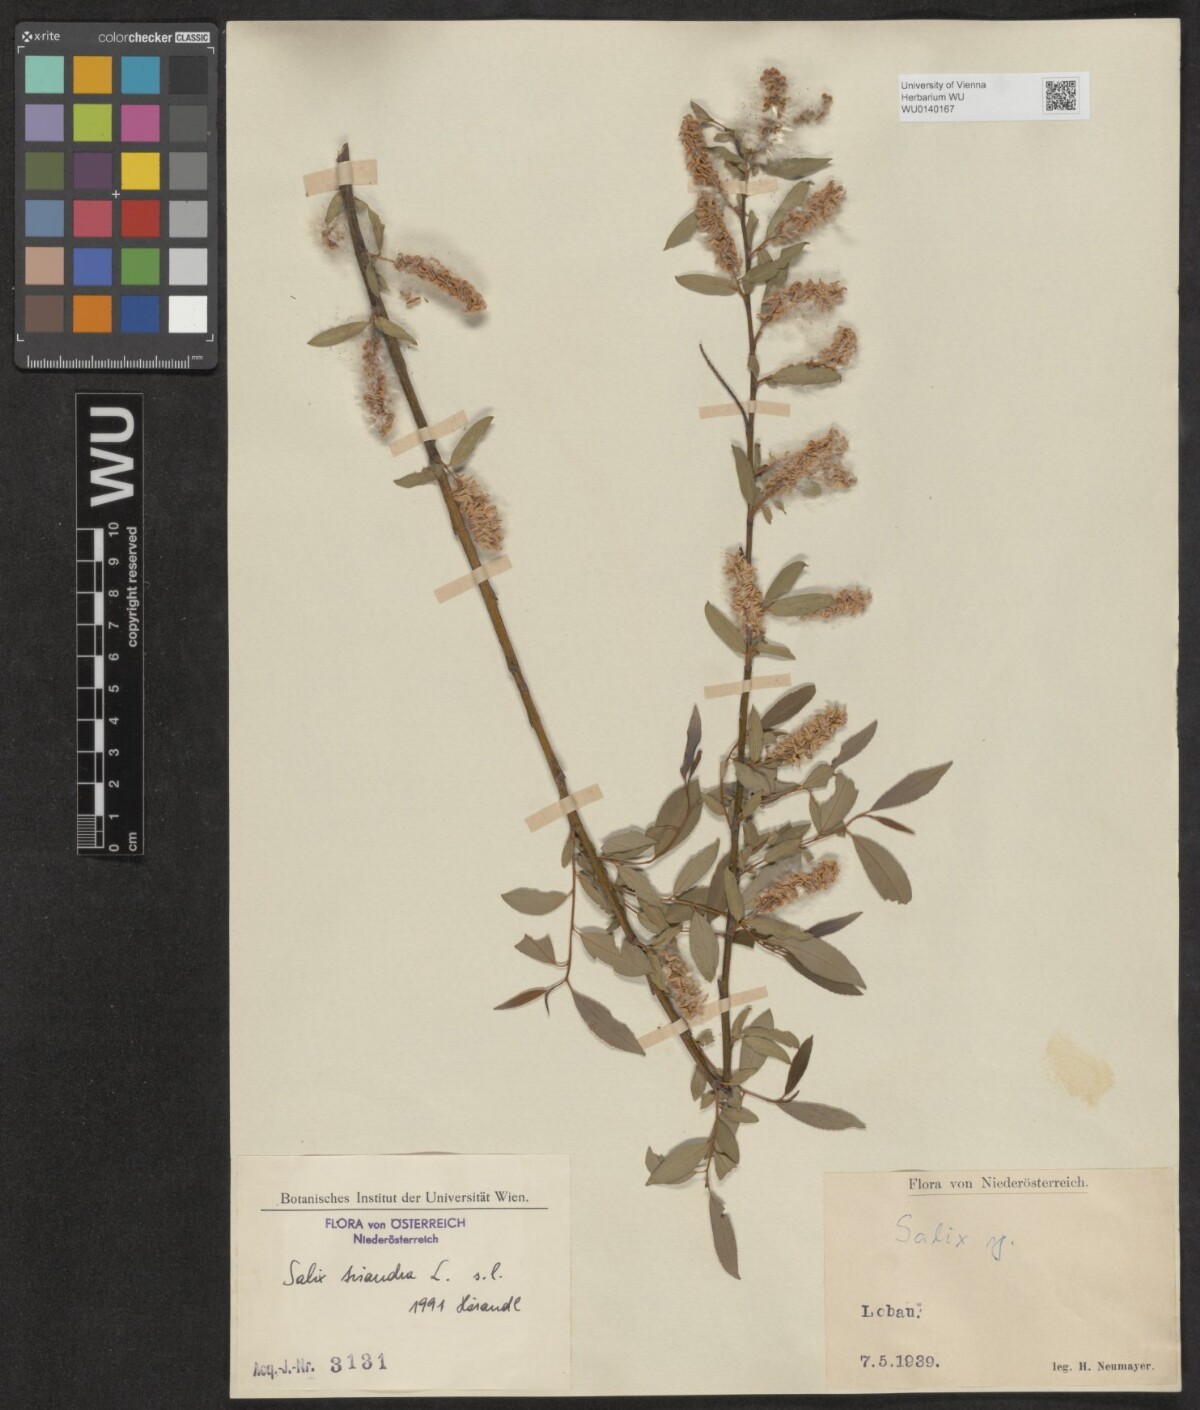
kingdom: Plantae
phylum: Tracheophyta
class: Magnoliopsida
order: Malpighiales
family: Salicaceae
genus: Salix
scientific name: Salix triandra
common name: Almond willow
